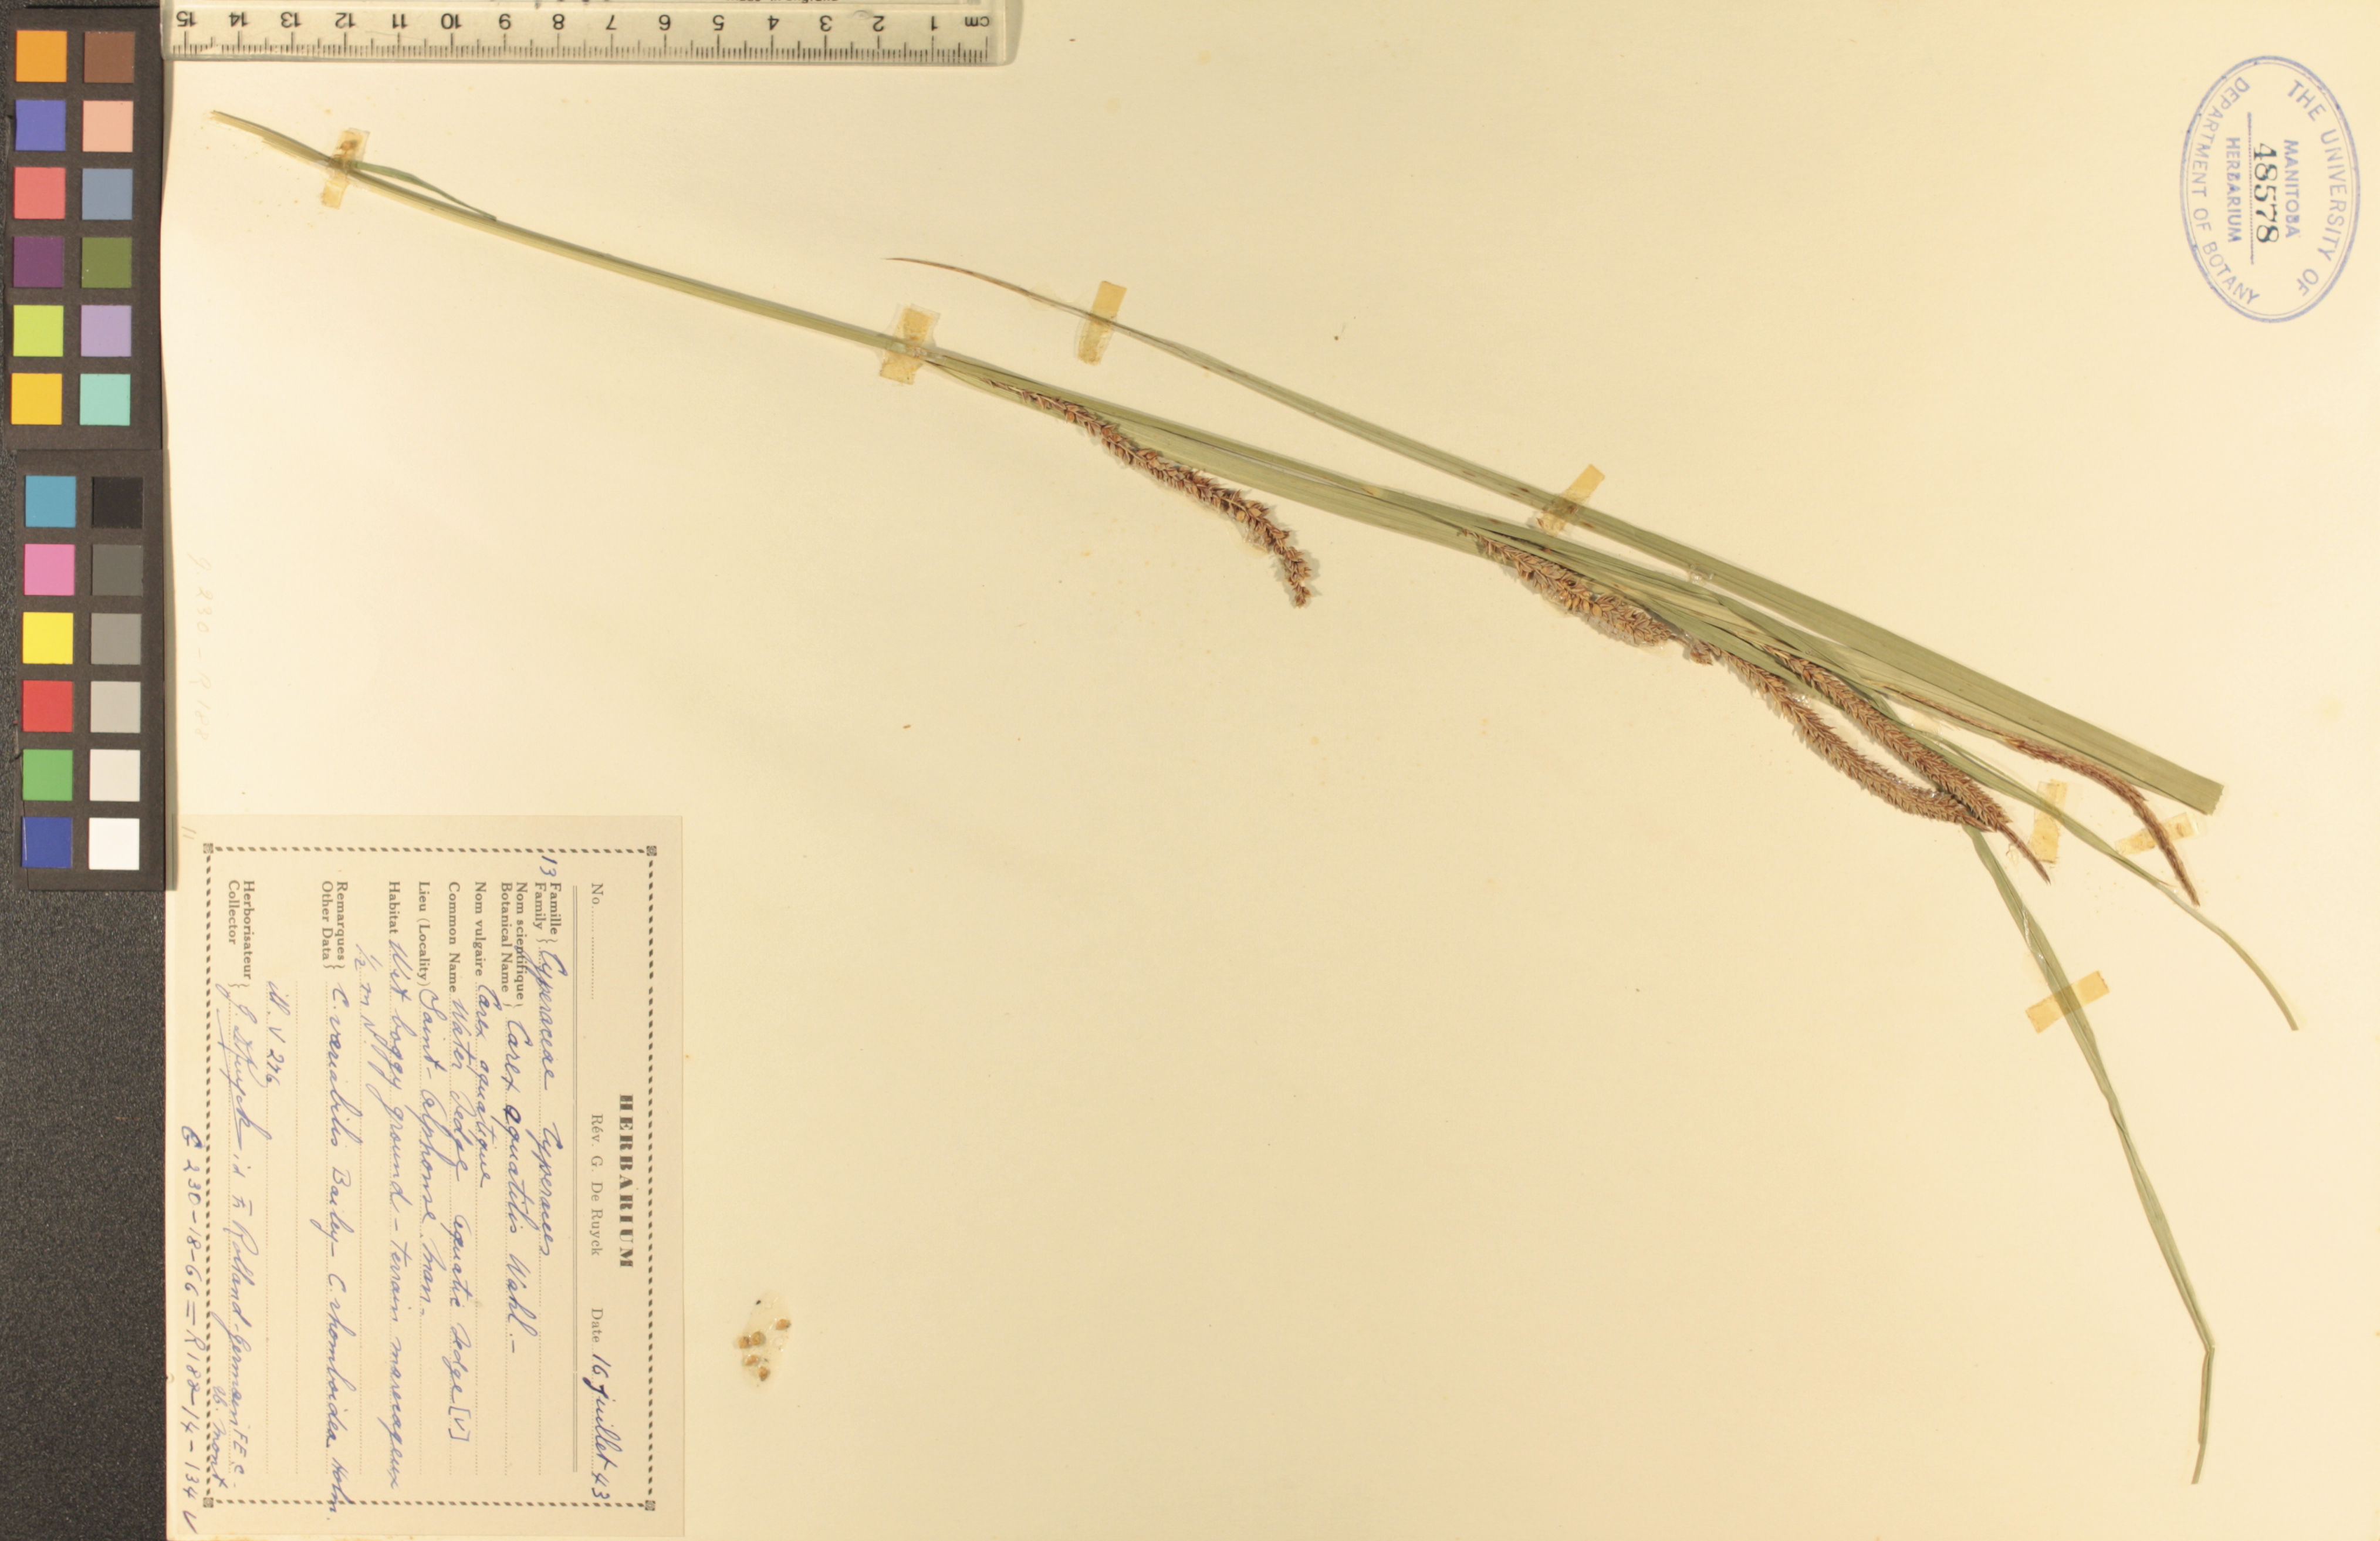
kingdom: Plantae
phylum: Tracheophyta
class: Liliopsida
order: Poales
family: Cyperaceae
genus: Carex
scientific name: Carex aquatilis
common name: Water sedge
